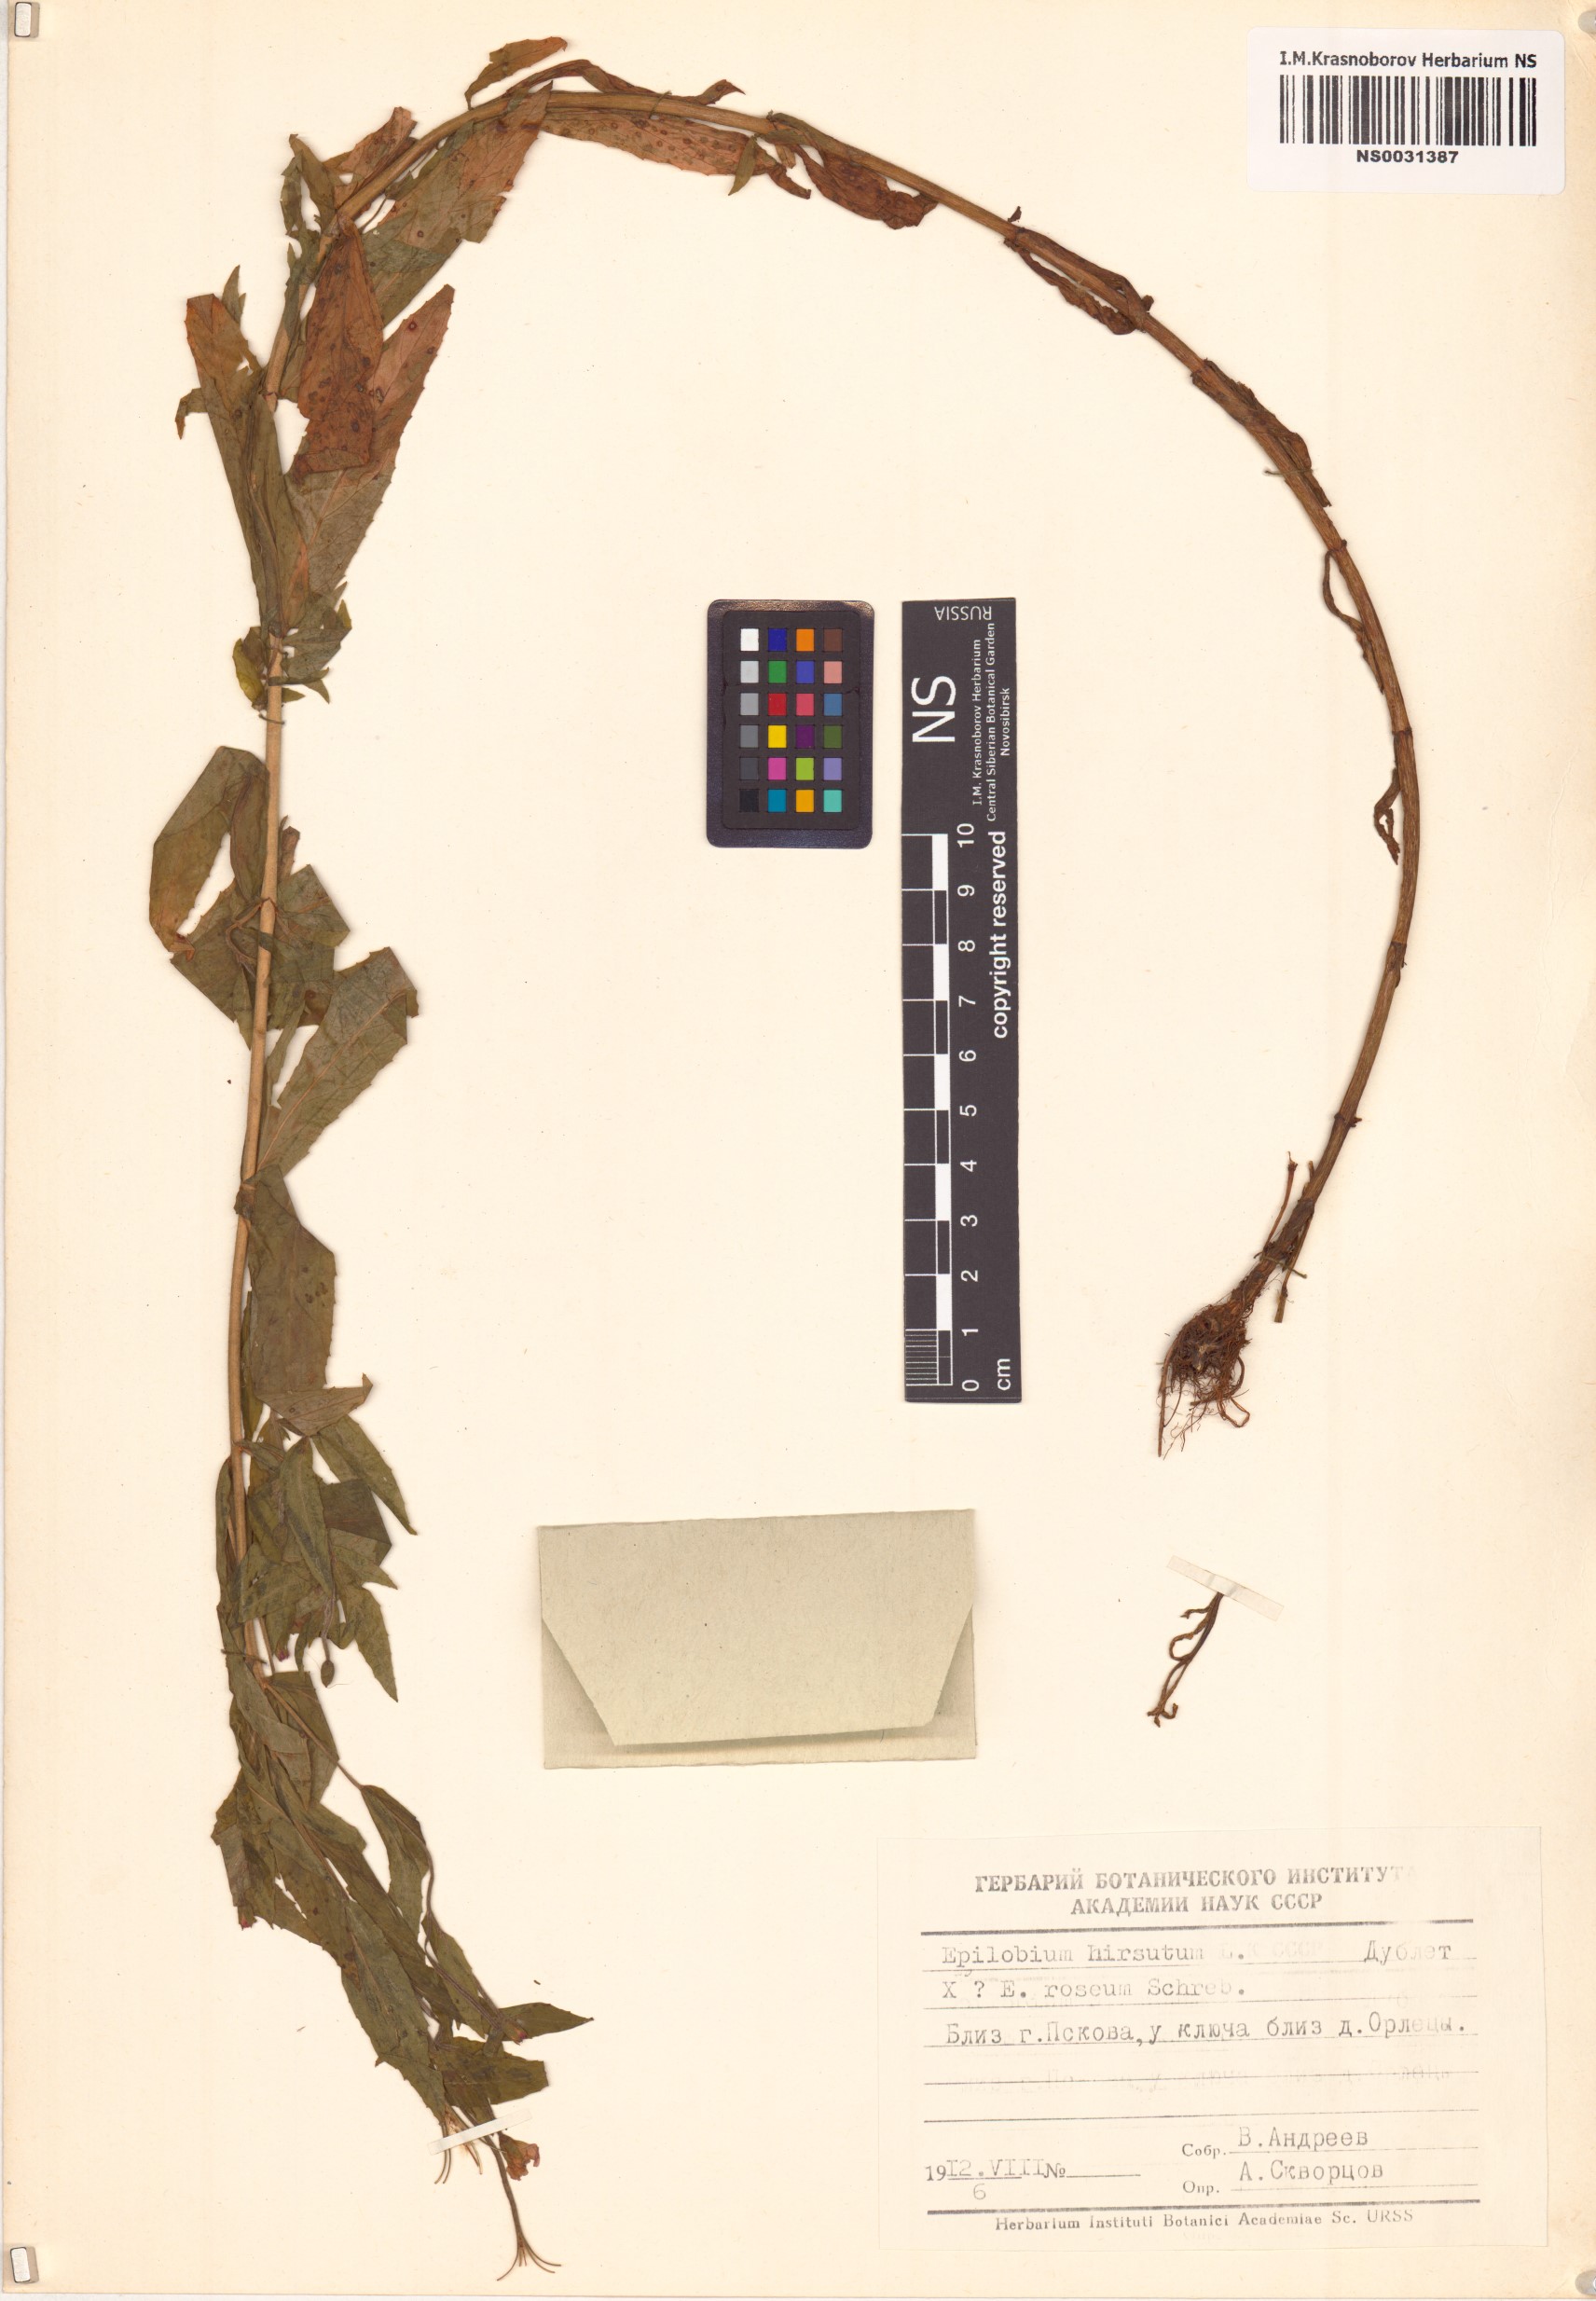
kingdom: Plantae
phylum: Tracheophyta
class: Magnoliopsida
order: Myrtales
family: Onagraceae
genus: Epilobium
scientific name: Epilobium hirsutum
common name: Great willowherb
